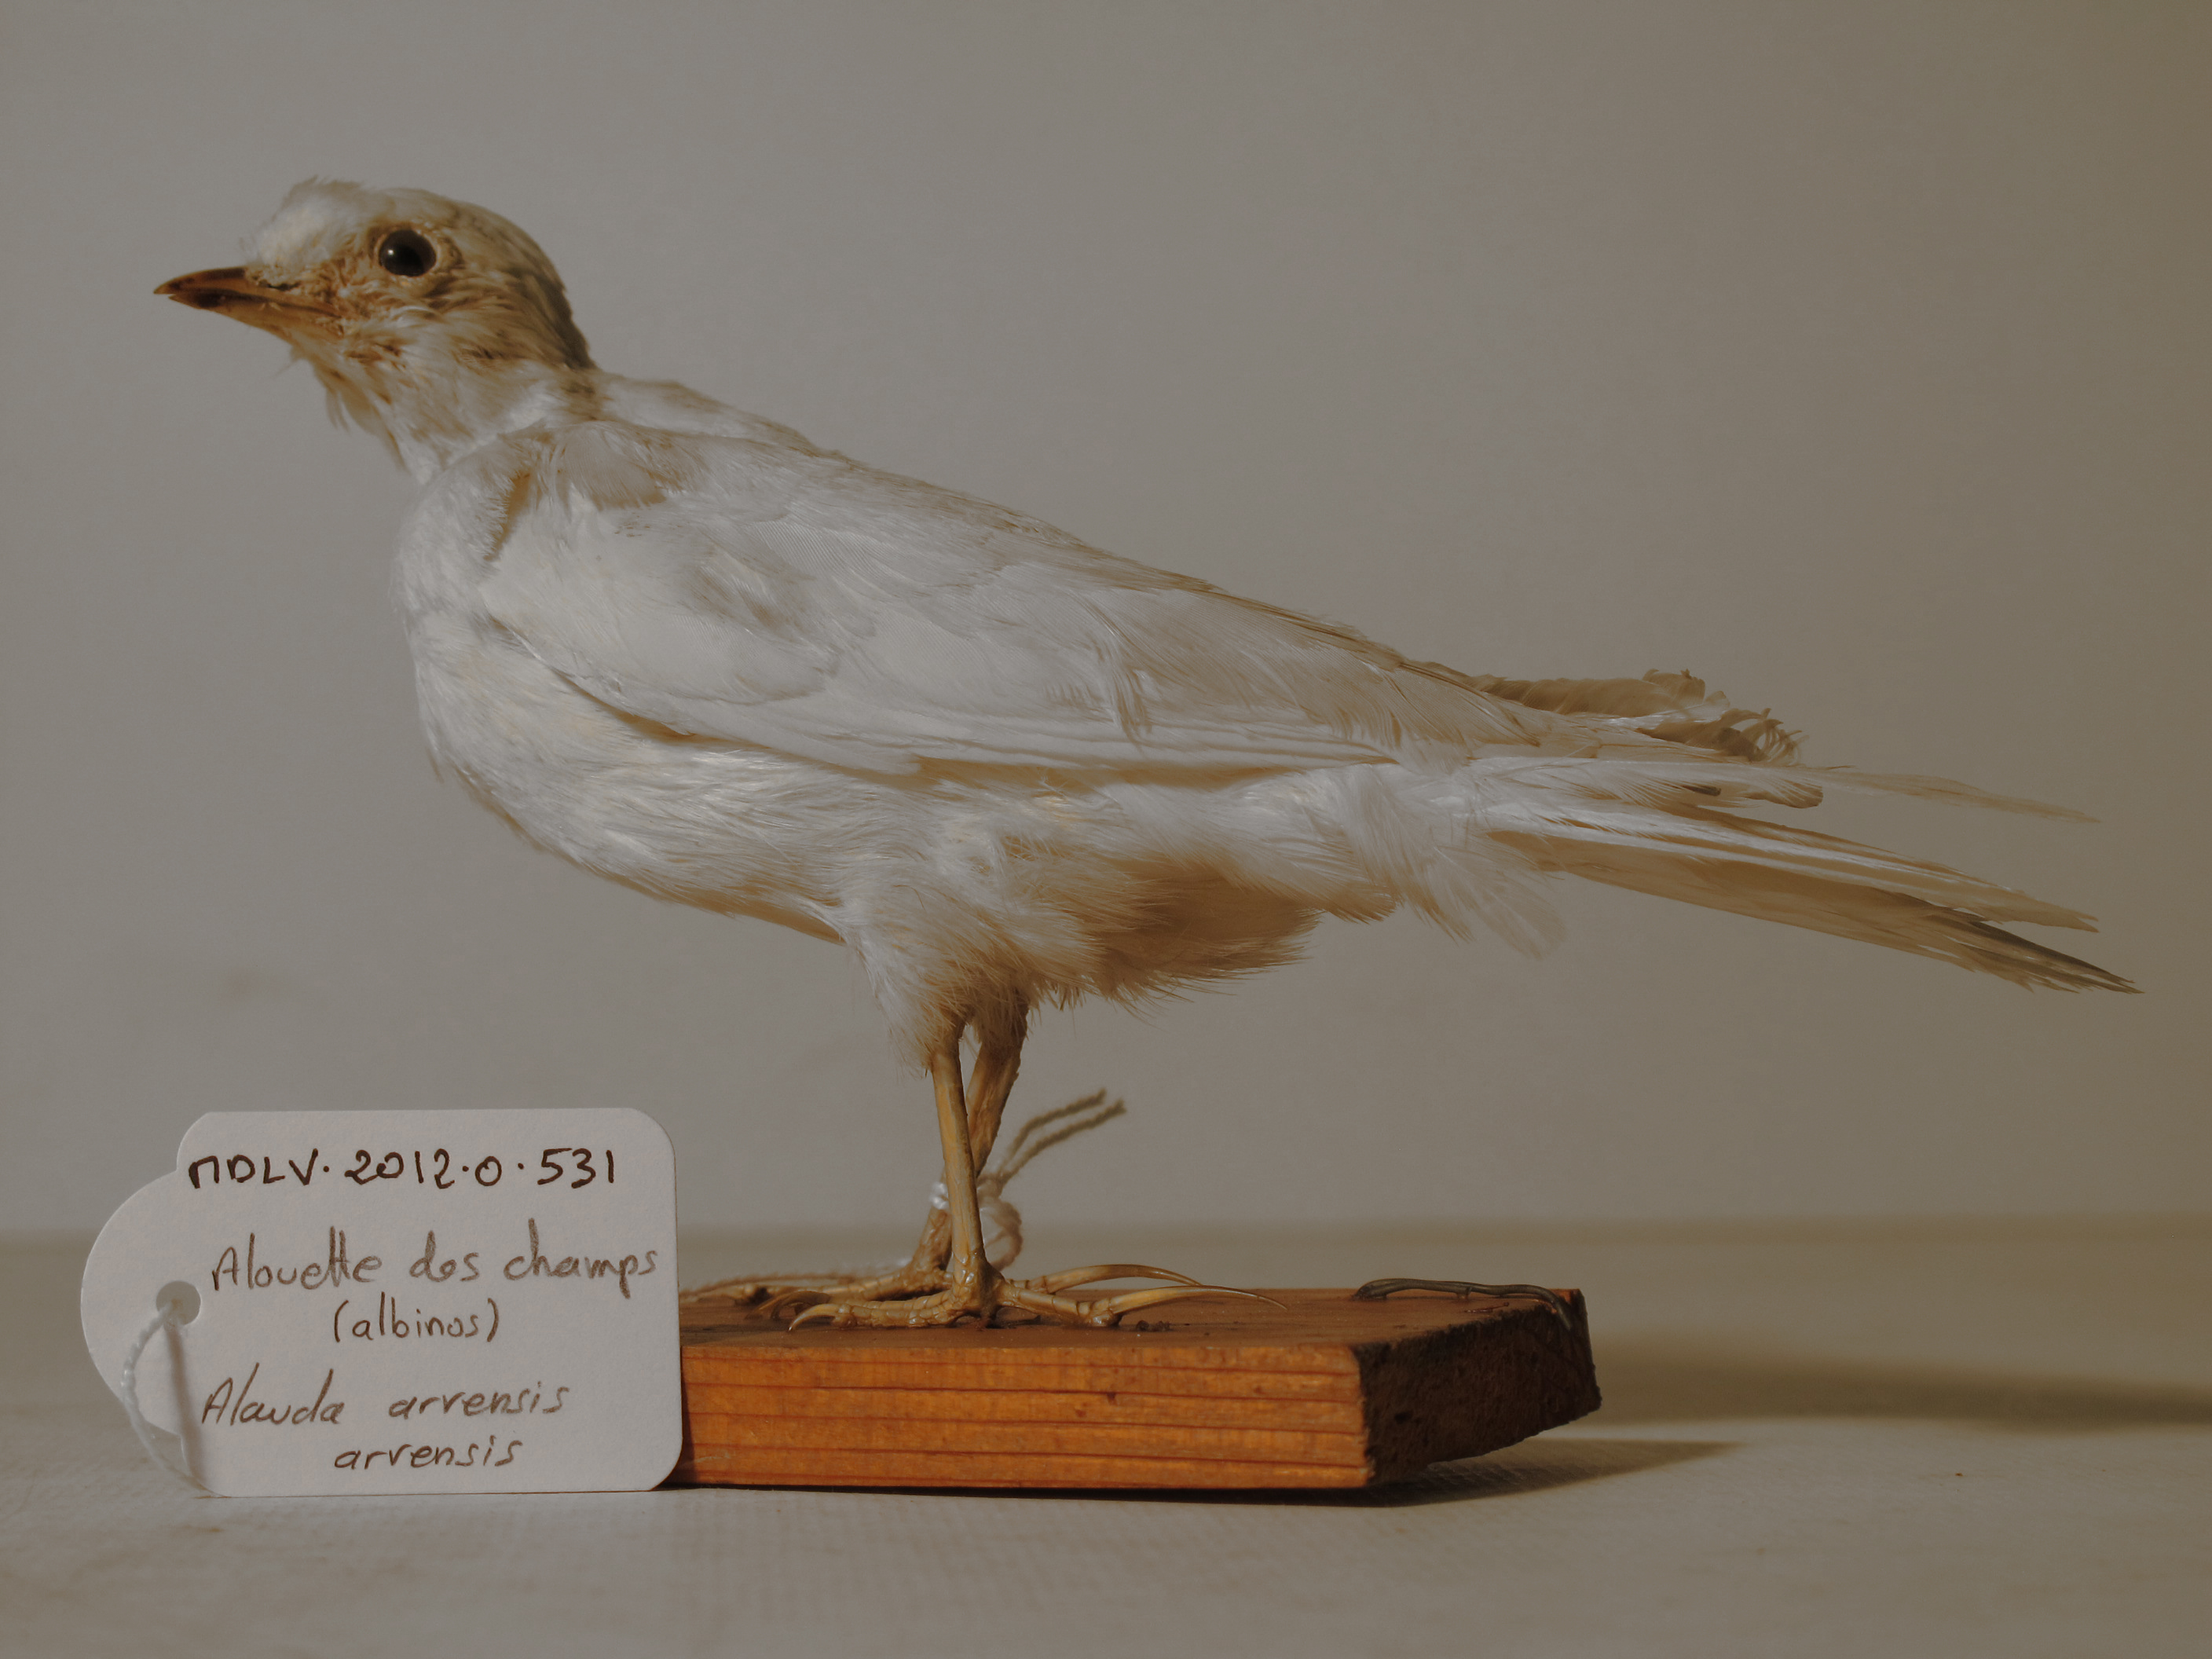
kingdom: Animalia
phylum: Chordata
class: Aves
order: Passeriformes
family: Alaudidae
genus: Alauda
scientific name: Alauda arvensis
